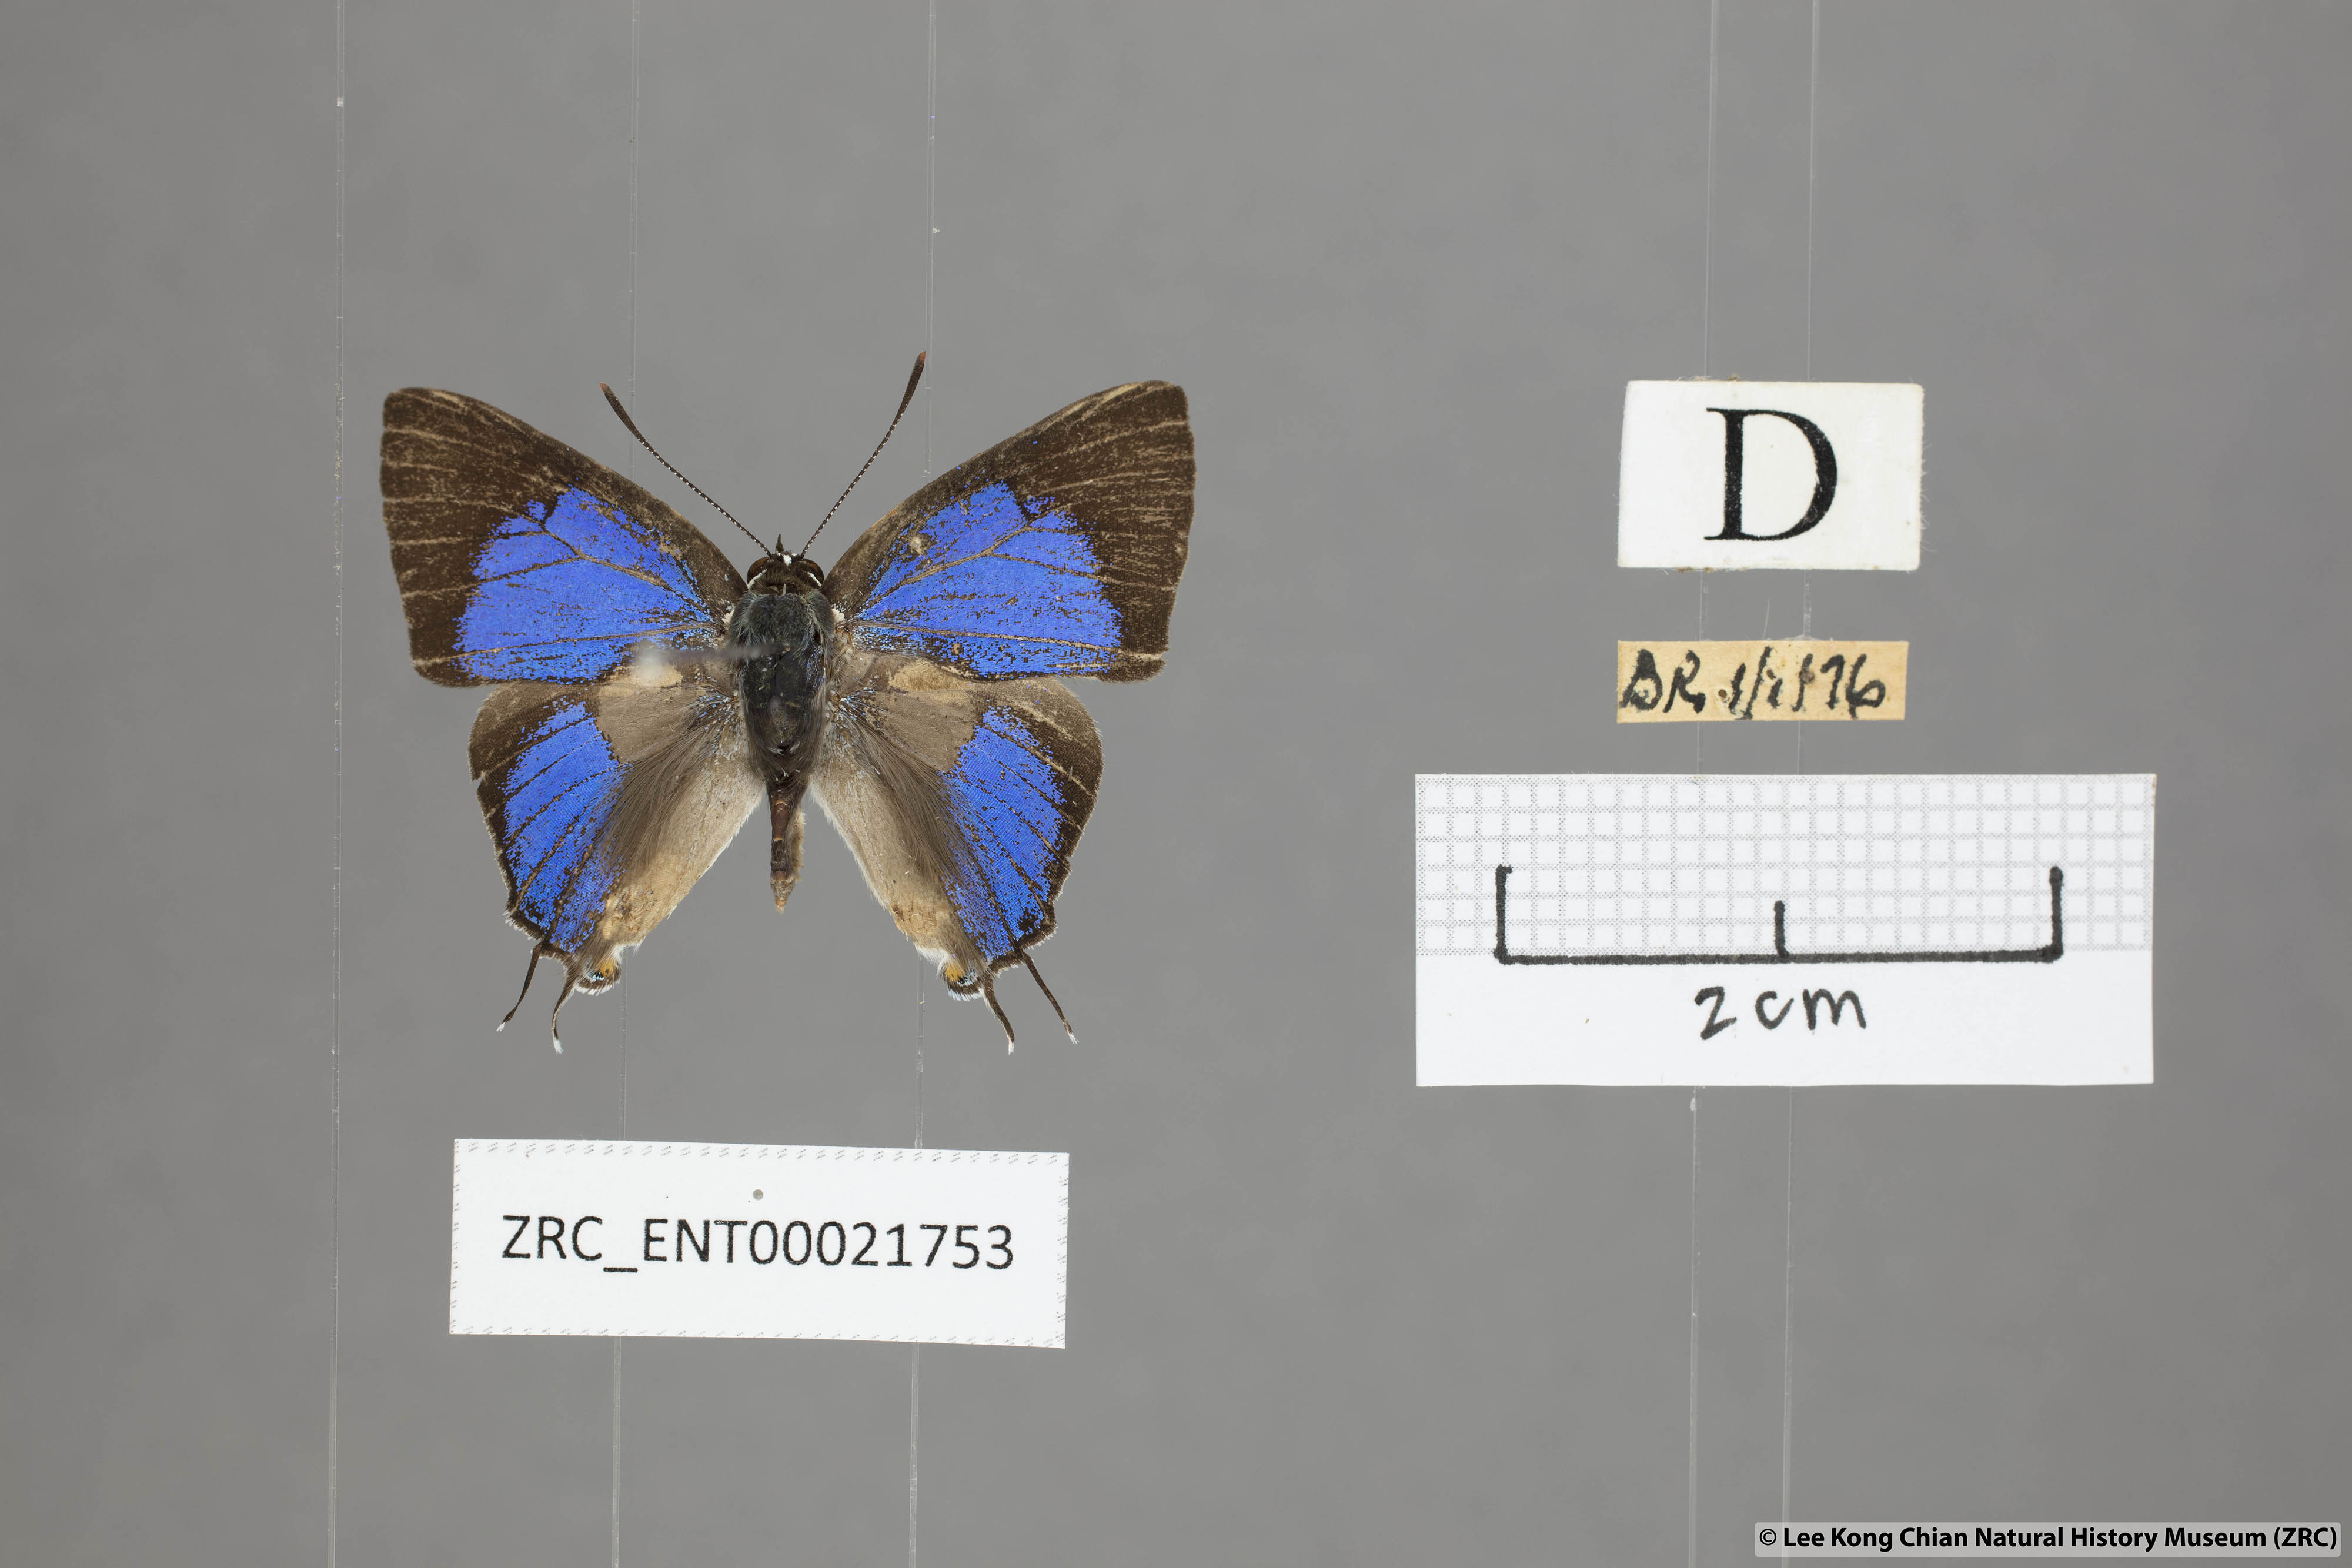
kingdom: Animalia
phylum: Arthropoda
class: Insecta
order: Lepidoptera
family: Lycaenidae
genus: Pratapa
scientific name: Pratapa
